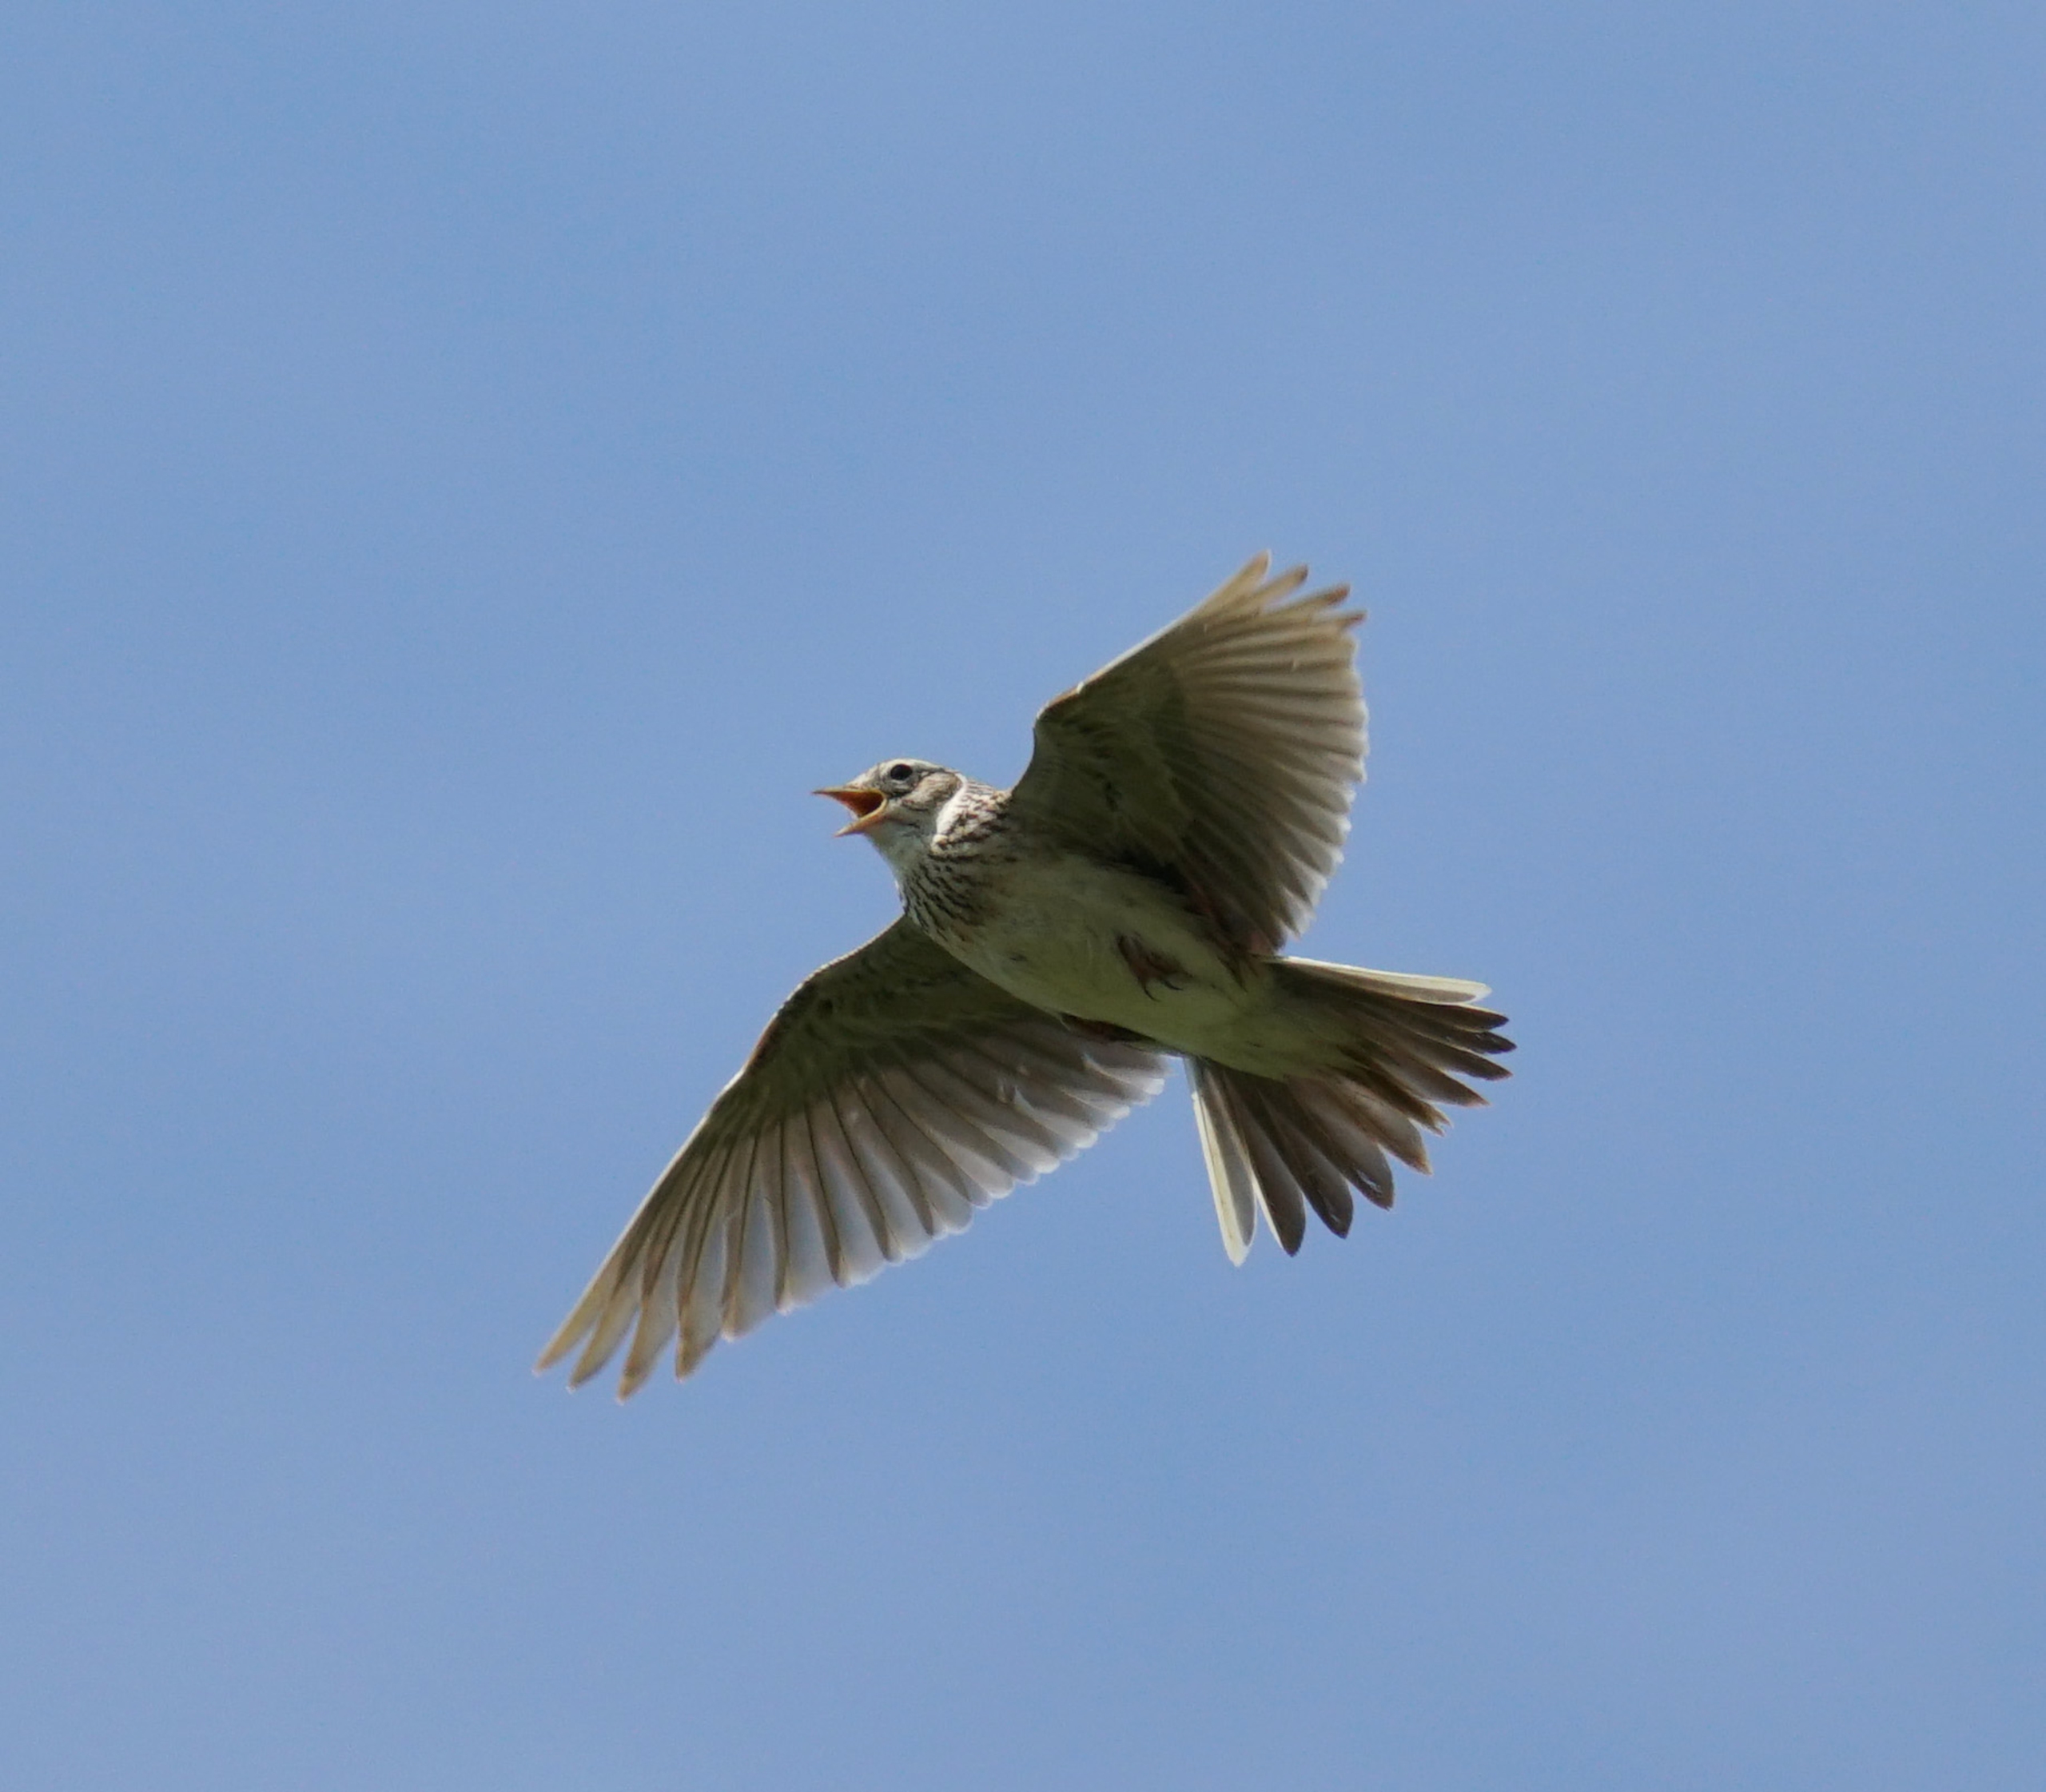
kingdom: Animalia
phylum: Chordata
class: Aves
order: Passeriformes
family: Alaudidae
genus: Alauda
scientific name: Alauda arvensis
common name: Sanglærke
